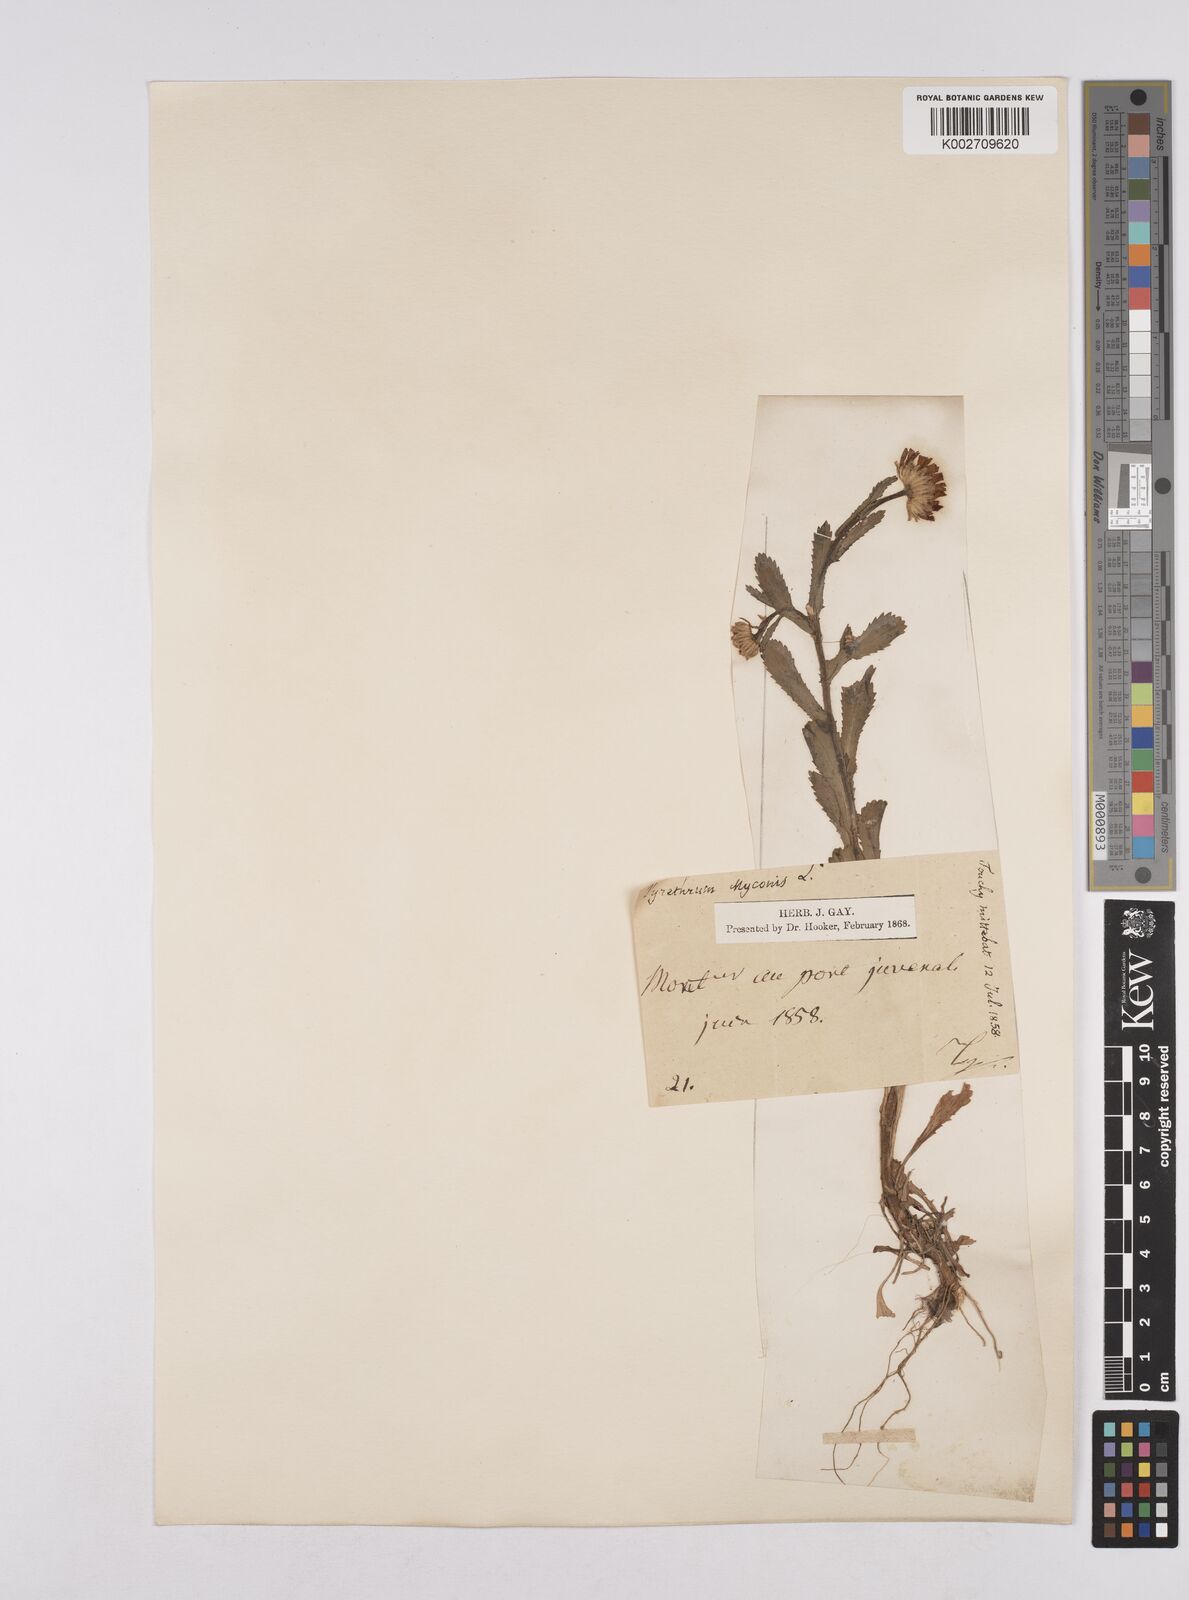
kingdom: Plantae
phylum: Tracheophyta
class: Magnoliopsida
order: Asterales
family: Asteraceae
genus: Coleostephus
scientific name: Coleostephus myconis
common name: Mediterranean marigold
